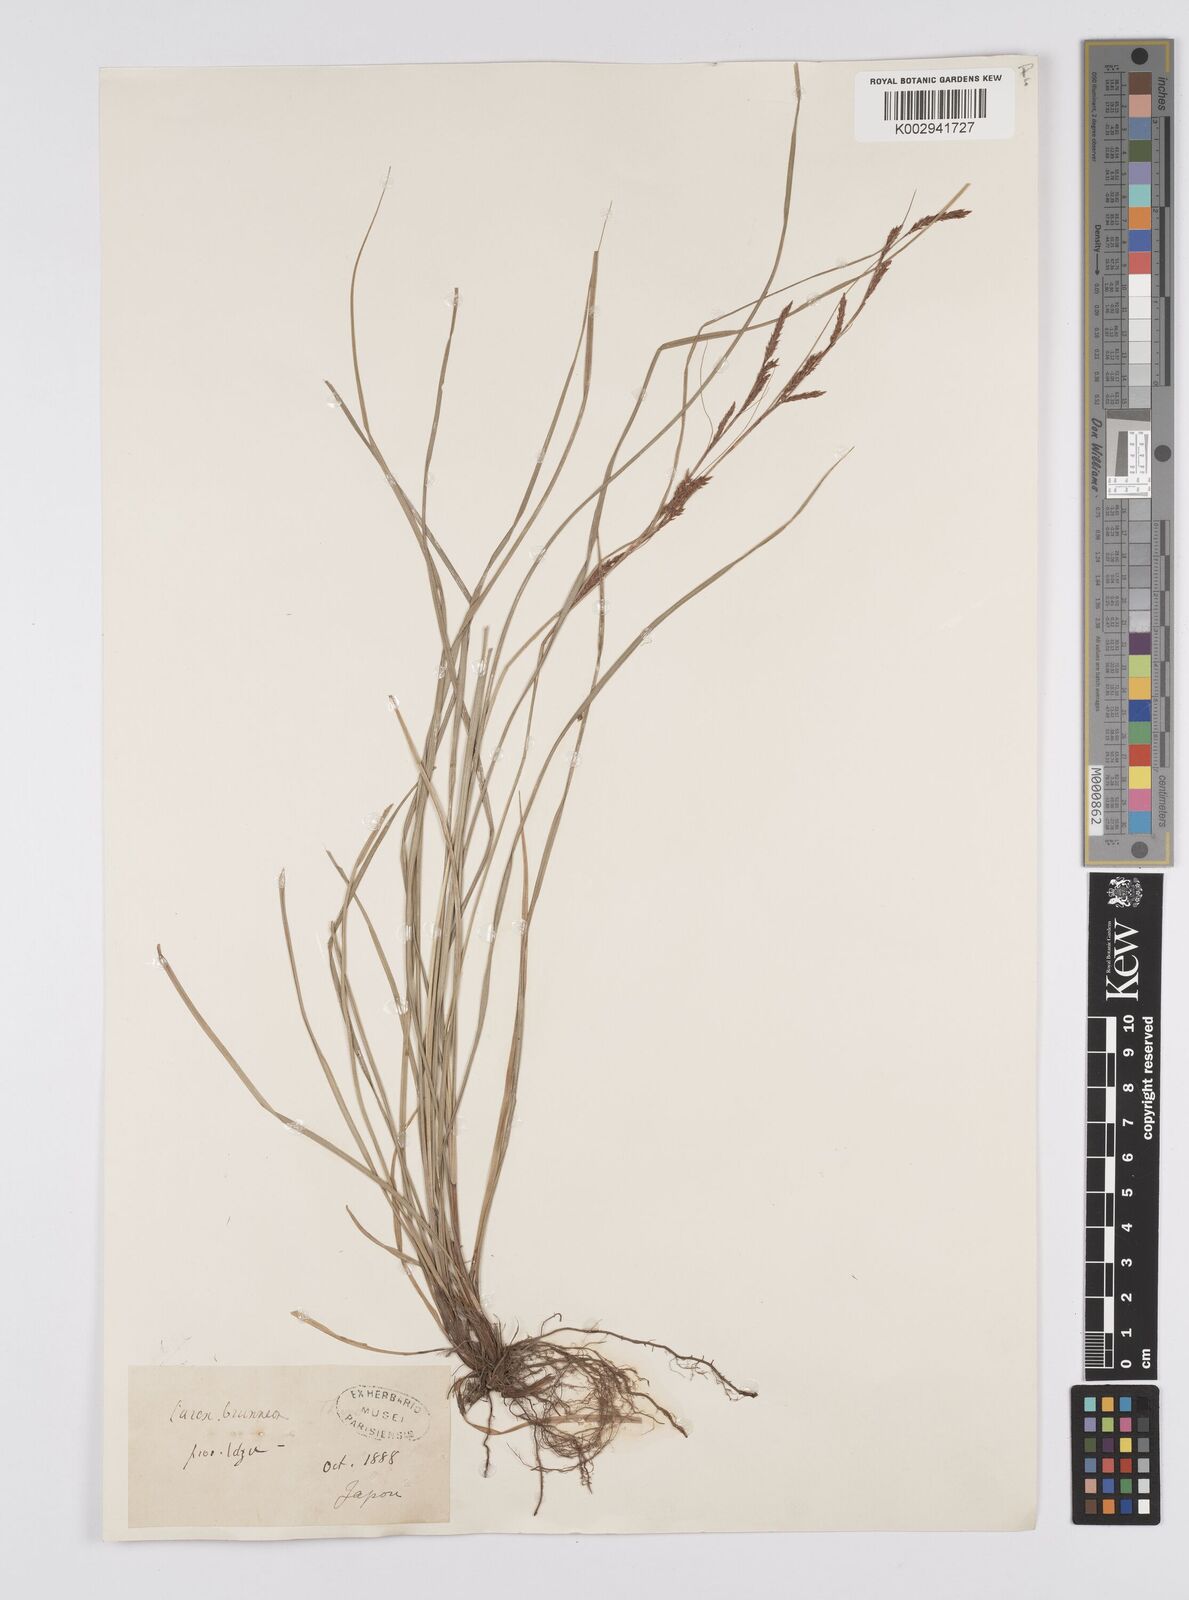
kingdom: Plantae
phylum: Tracheophyta
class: Liliopsida
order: Poales
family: Cyperaceae
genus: Carex
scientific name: Carex brunnea
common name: Greater brown sedge
